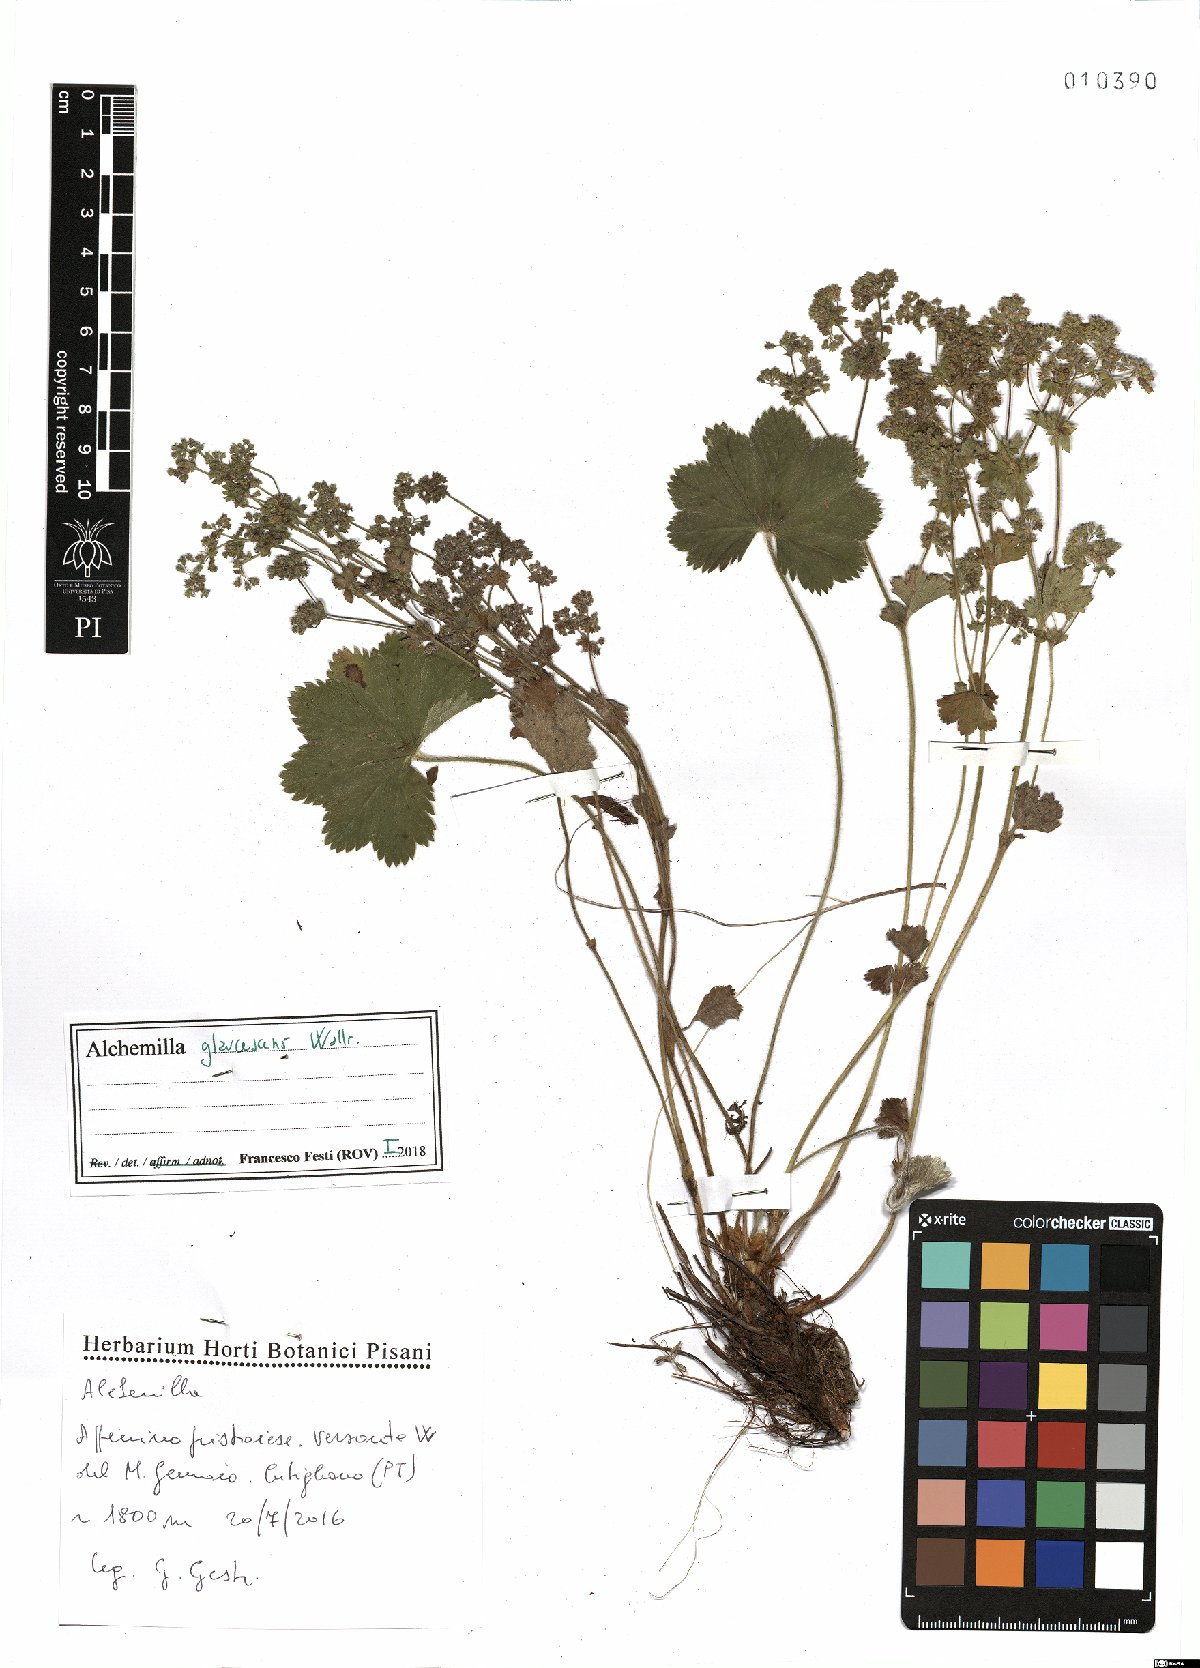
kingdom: Plantae
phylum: Tracheophyta
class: Magnoliopsida
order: Rosales
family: Rosaceae
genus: Alchemilla
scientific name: Alchemilla glaucescens
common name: Silky lady's mantle
